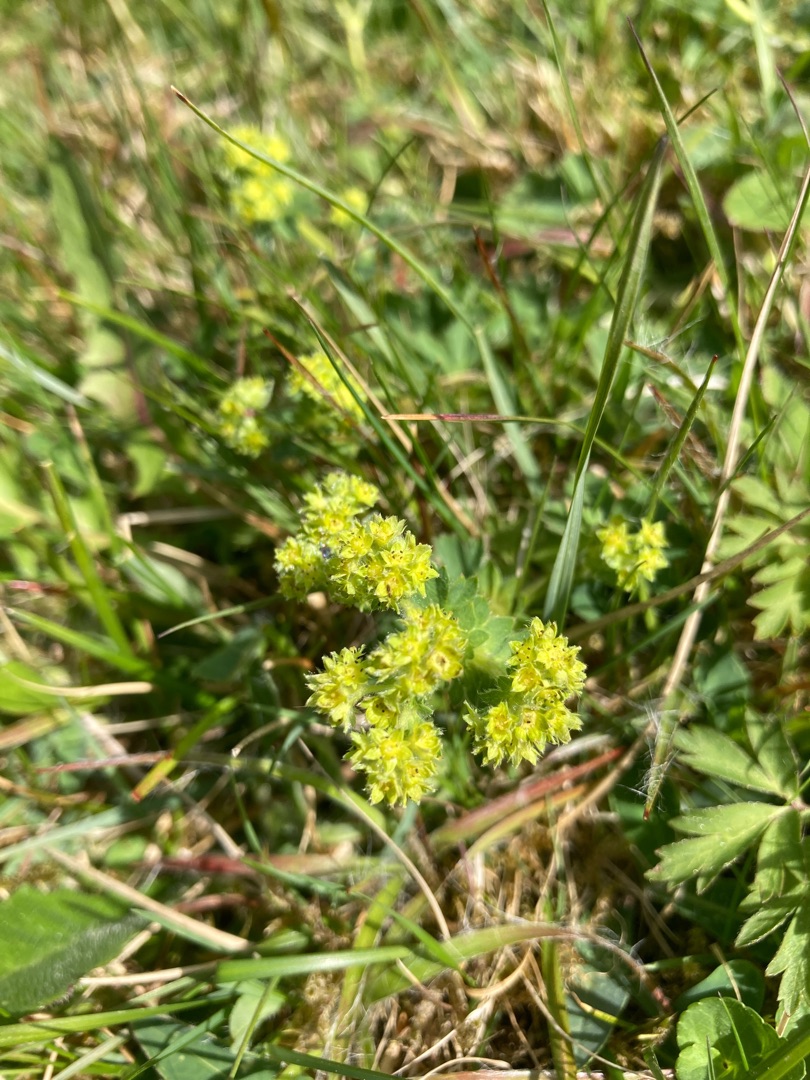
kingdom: Plantae
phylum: Tracheophyta
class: Magnoliopsida
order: Rosales
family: Rosaceae
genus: Alchemilla
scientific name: Alchemilla glaucescens
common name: Blågrøn løvefod
